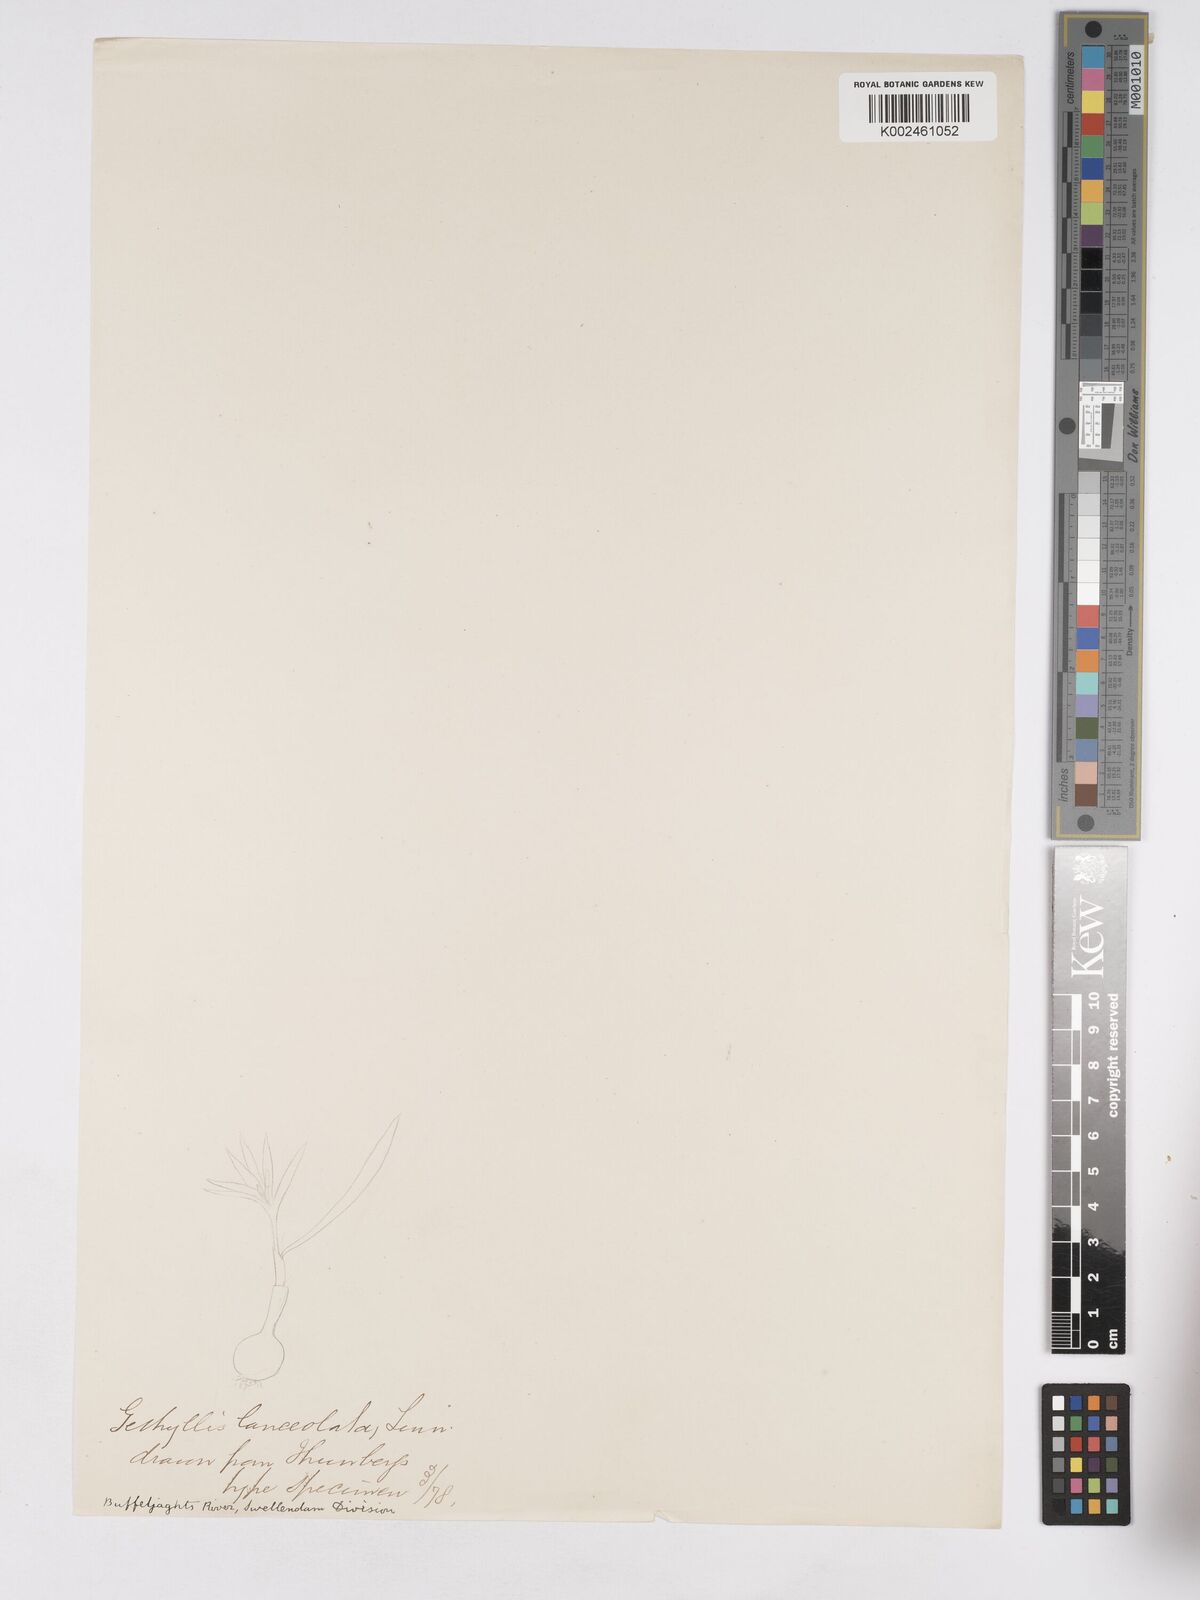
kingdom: Plantae
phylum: Tracheophyta
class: Liliopsida
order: Asparagales
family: Amaryllidaceae
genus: Apodolirion
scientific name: Apodolirion lanceolatum
